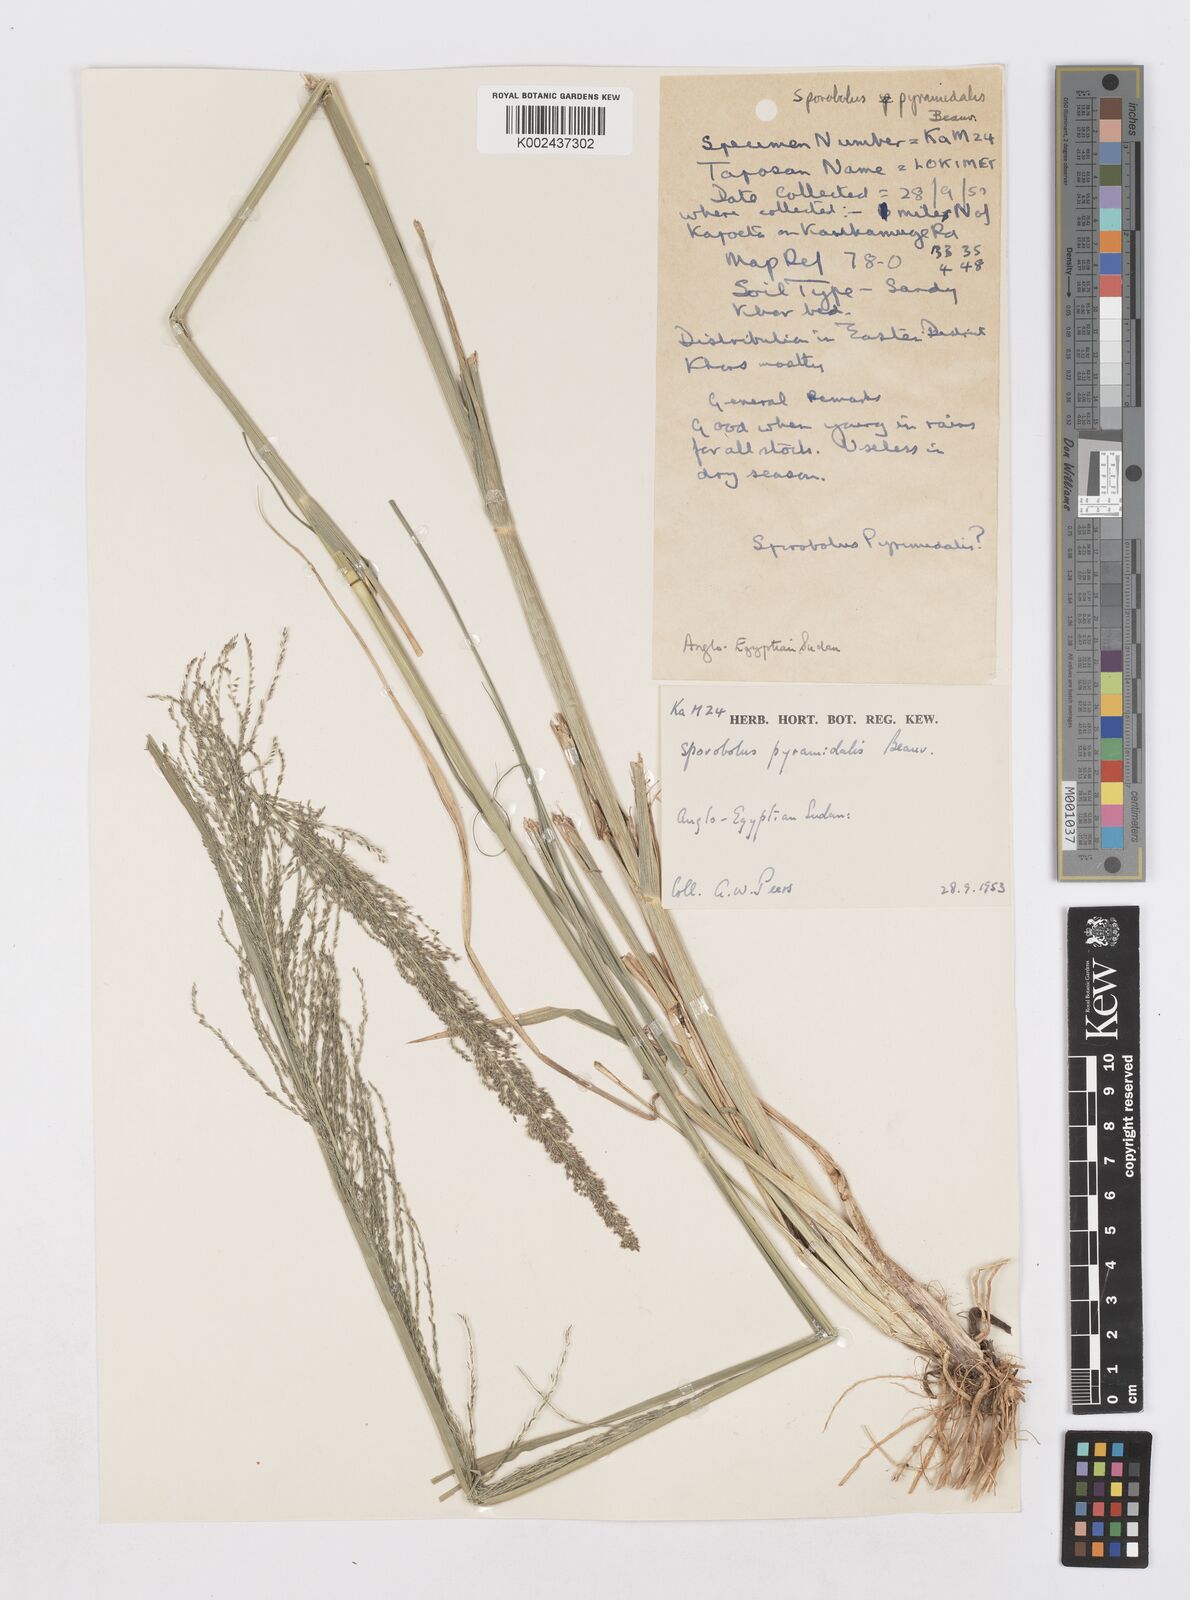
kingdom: Plantae
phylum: Tracheophyta
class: Liliopsida
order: Poales
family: Poaceae
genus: Sporobolus
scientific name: Sporobolus pyramidalis
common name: West indian dropseed
